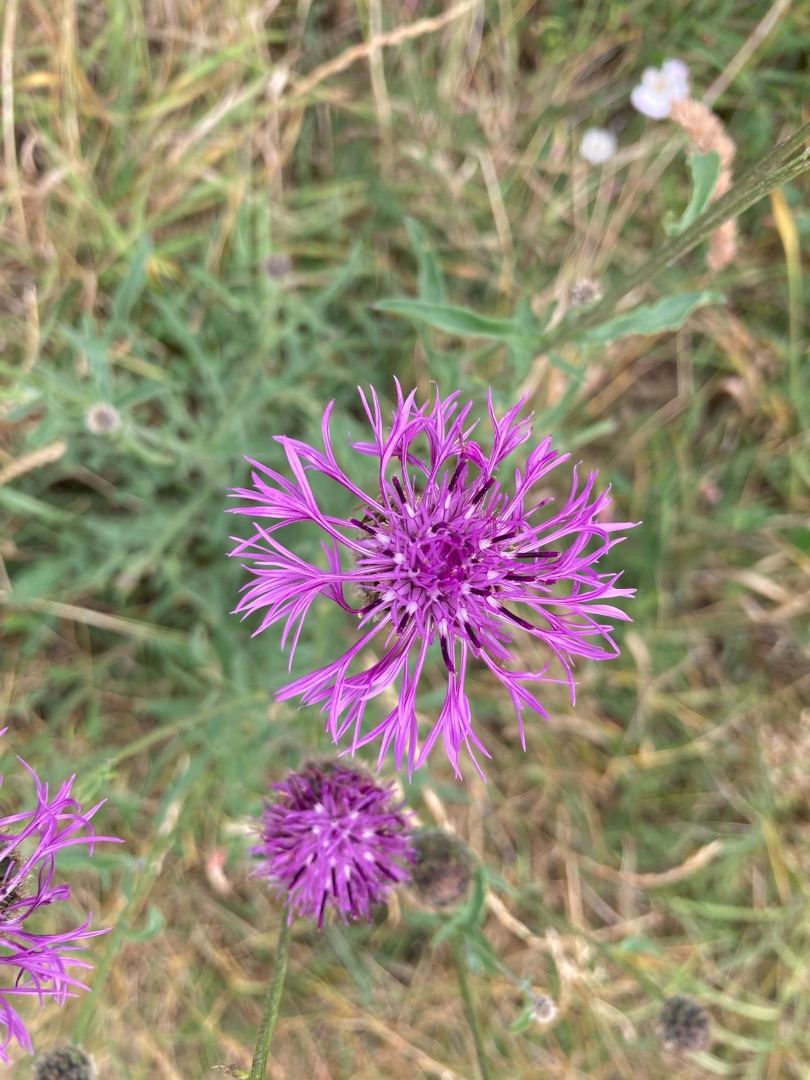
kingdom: Plantae
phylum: Tracheophyta
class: Magnoliopsida
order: Asterales
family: Asteraceae
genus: Centaurea
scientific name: Centaurea scabiosa
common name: Stor knopurt
